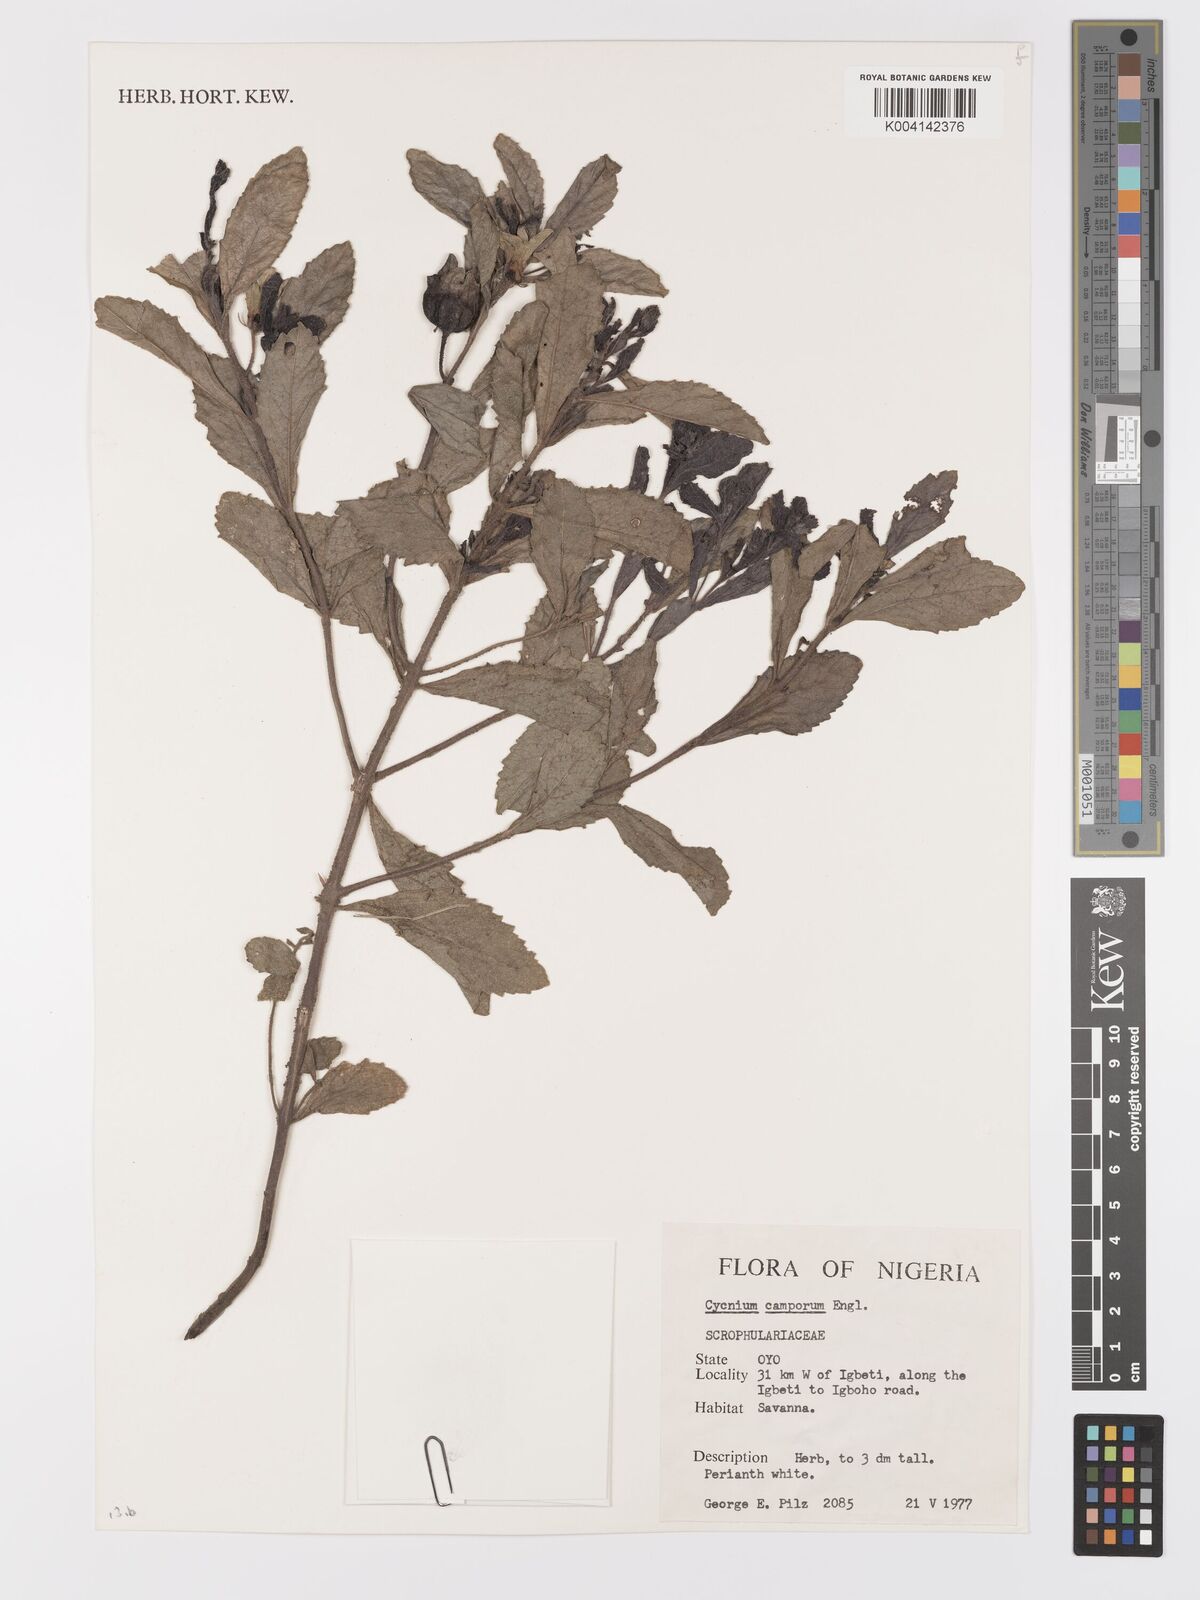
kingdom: Plantae
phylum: Tracheophyta
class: Magnoliopsida
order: Lamiales
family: Orobanchaceae
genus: Cycnium
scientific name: Cycnium adoense
